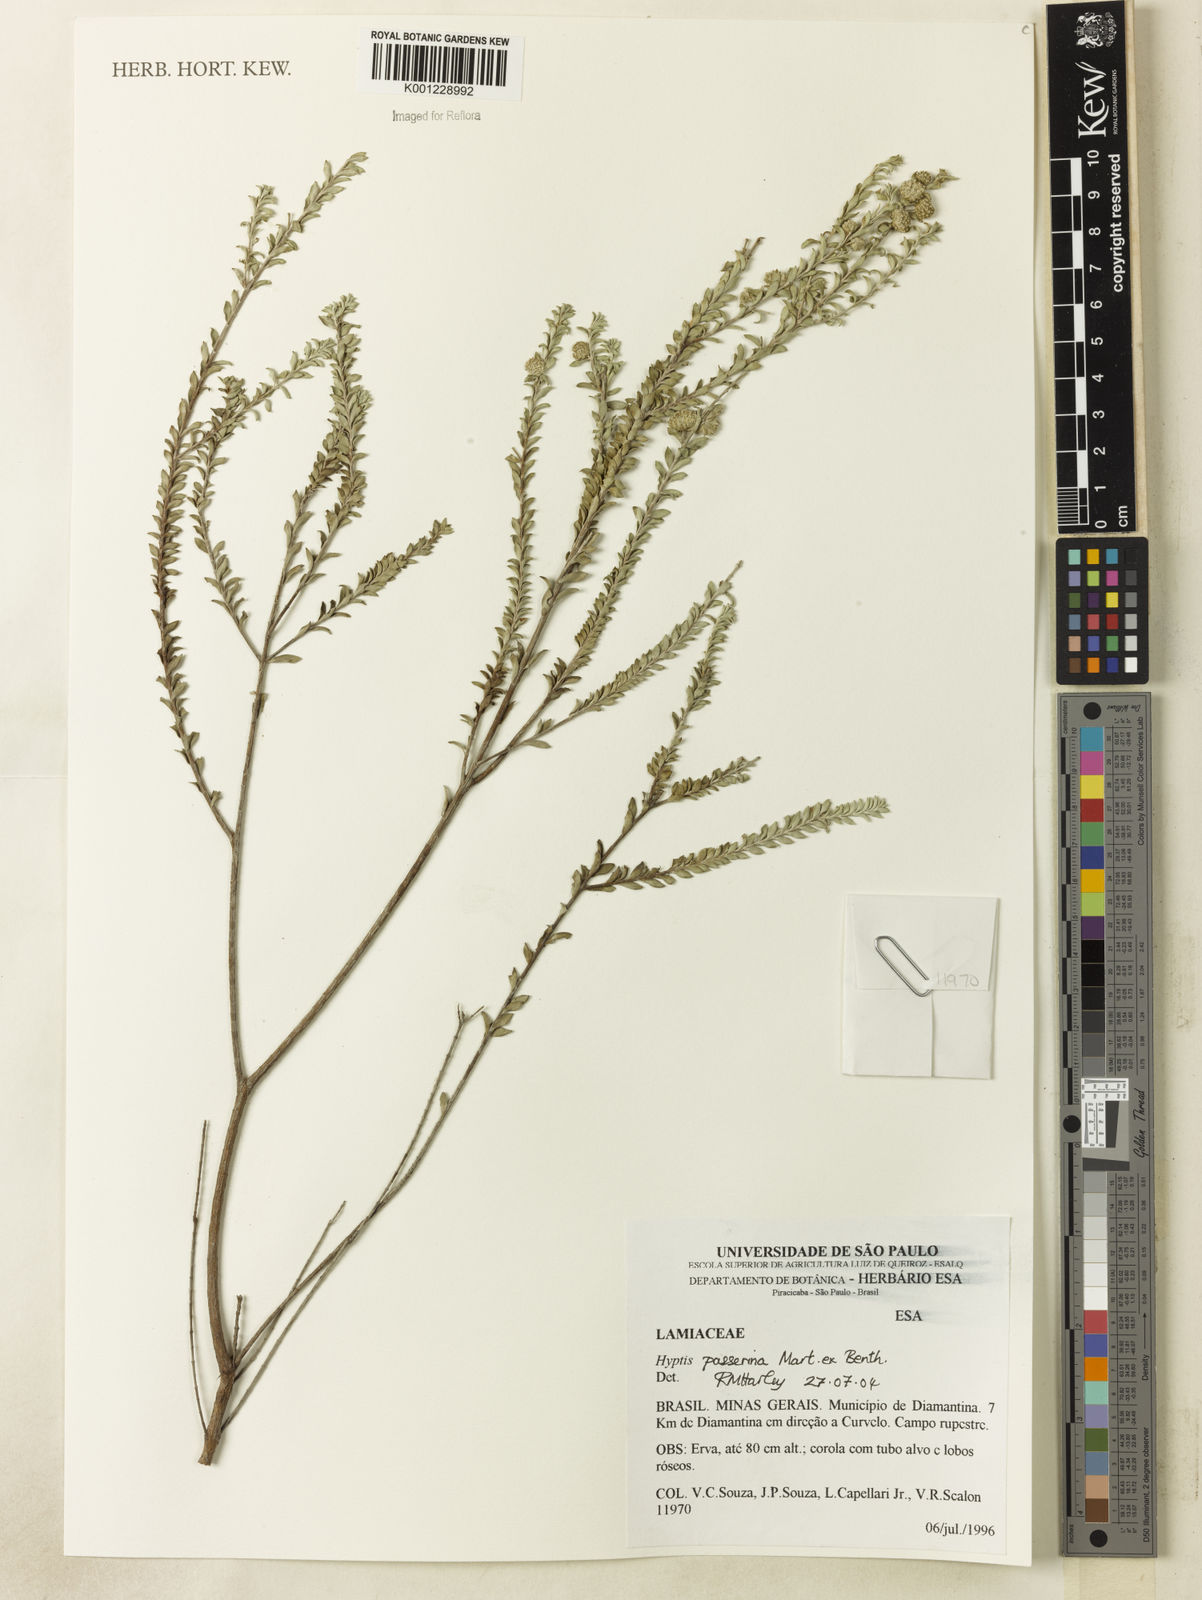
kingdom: Plantae
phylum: Tracheophyta
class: Magnoliopsida
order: Lamiales
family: Lamiaceae
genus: Hyptis
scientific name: Hyptis passerina
